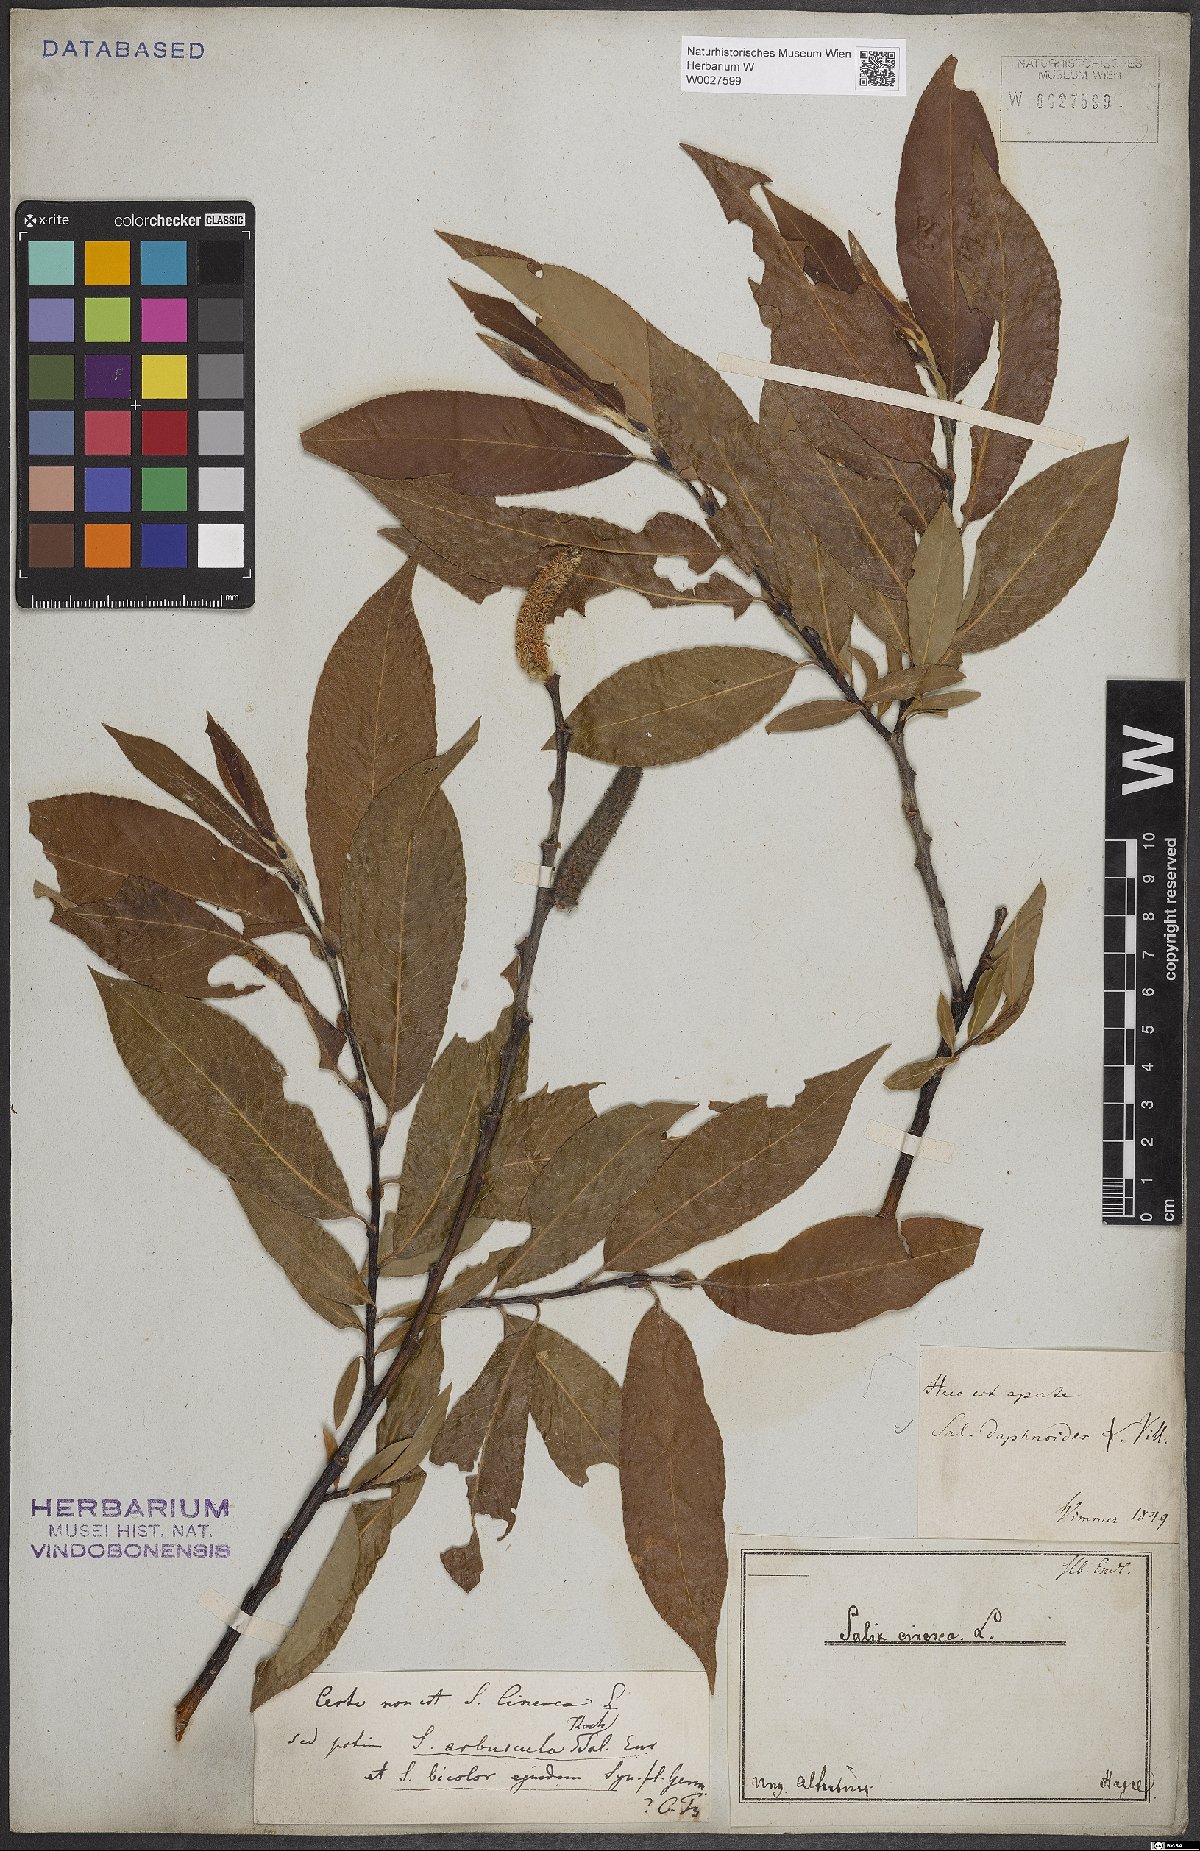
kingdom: Plantae
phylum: Tracheophyta
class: Magnoliopsida
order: Malpighiales
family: Salicaceae
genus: Salix
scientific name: Salix daphnoides
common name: European violet-willow
